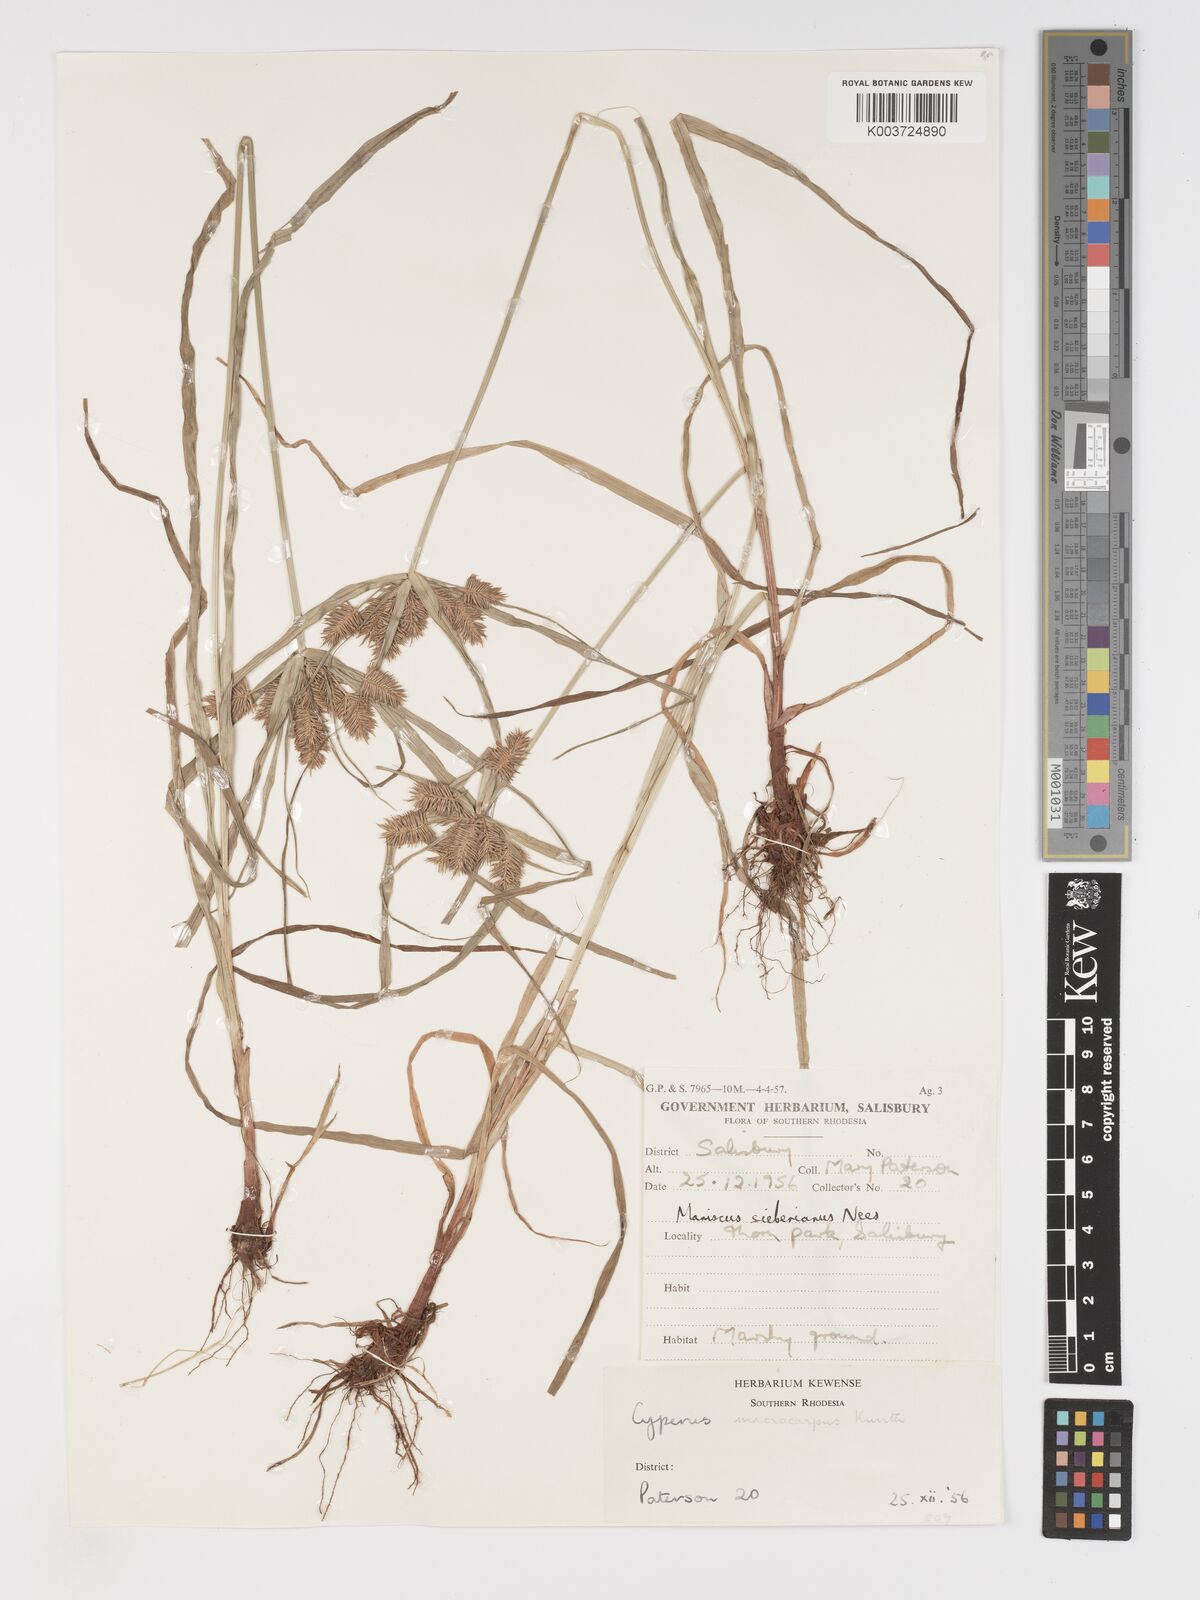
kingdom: Plantae
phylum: Tracheophyta
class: Liliopsida
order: Poales
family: Cyperaceae
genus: Cyperus
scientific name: Cyperus pseudoflavus
